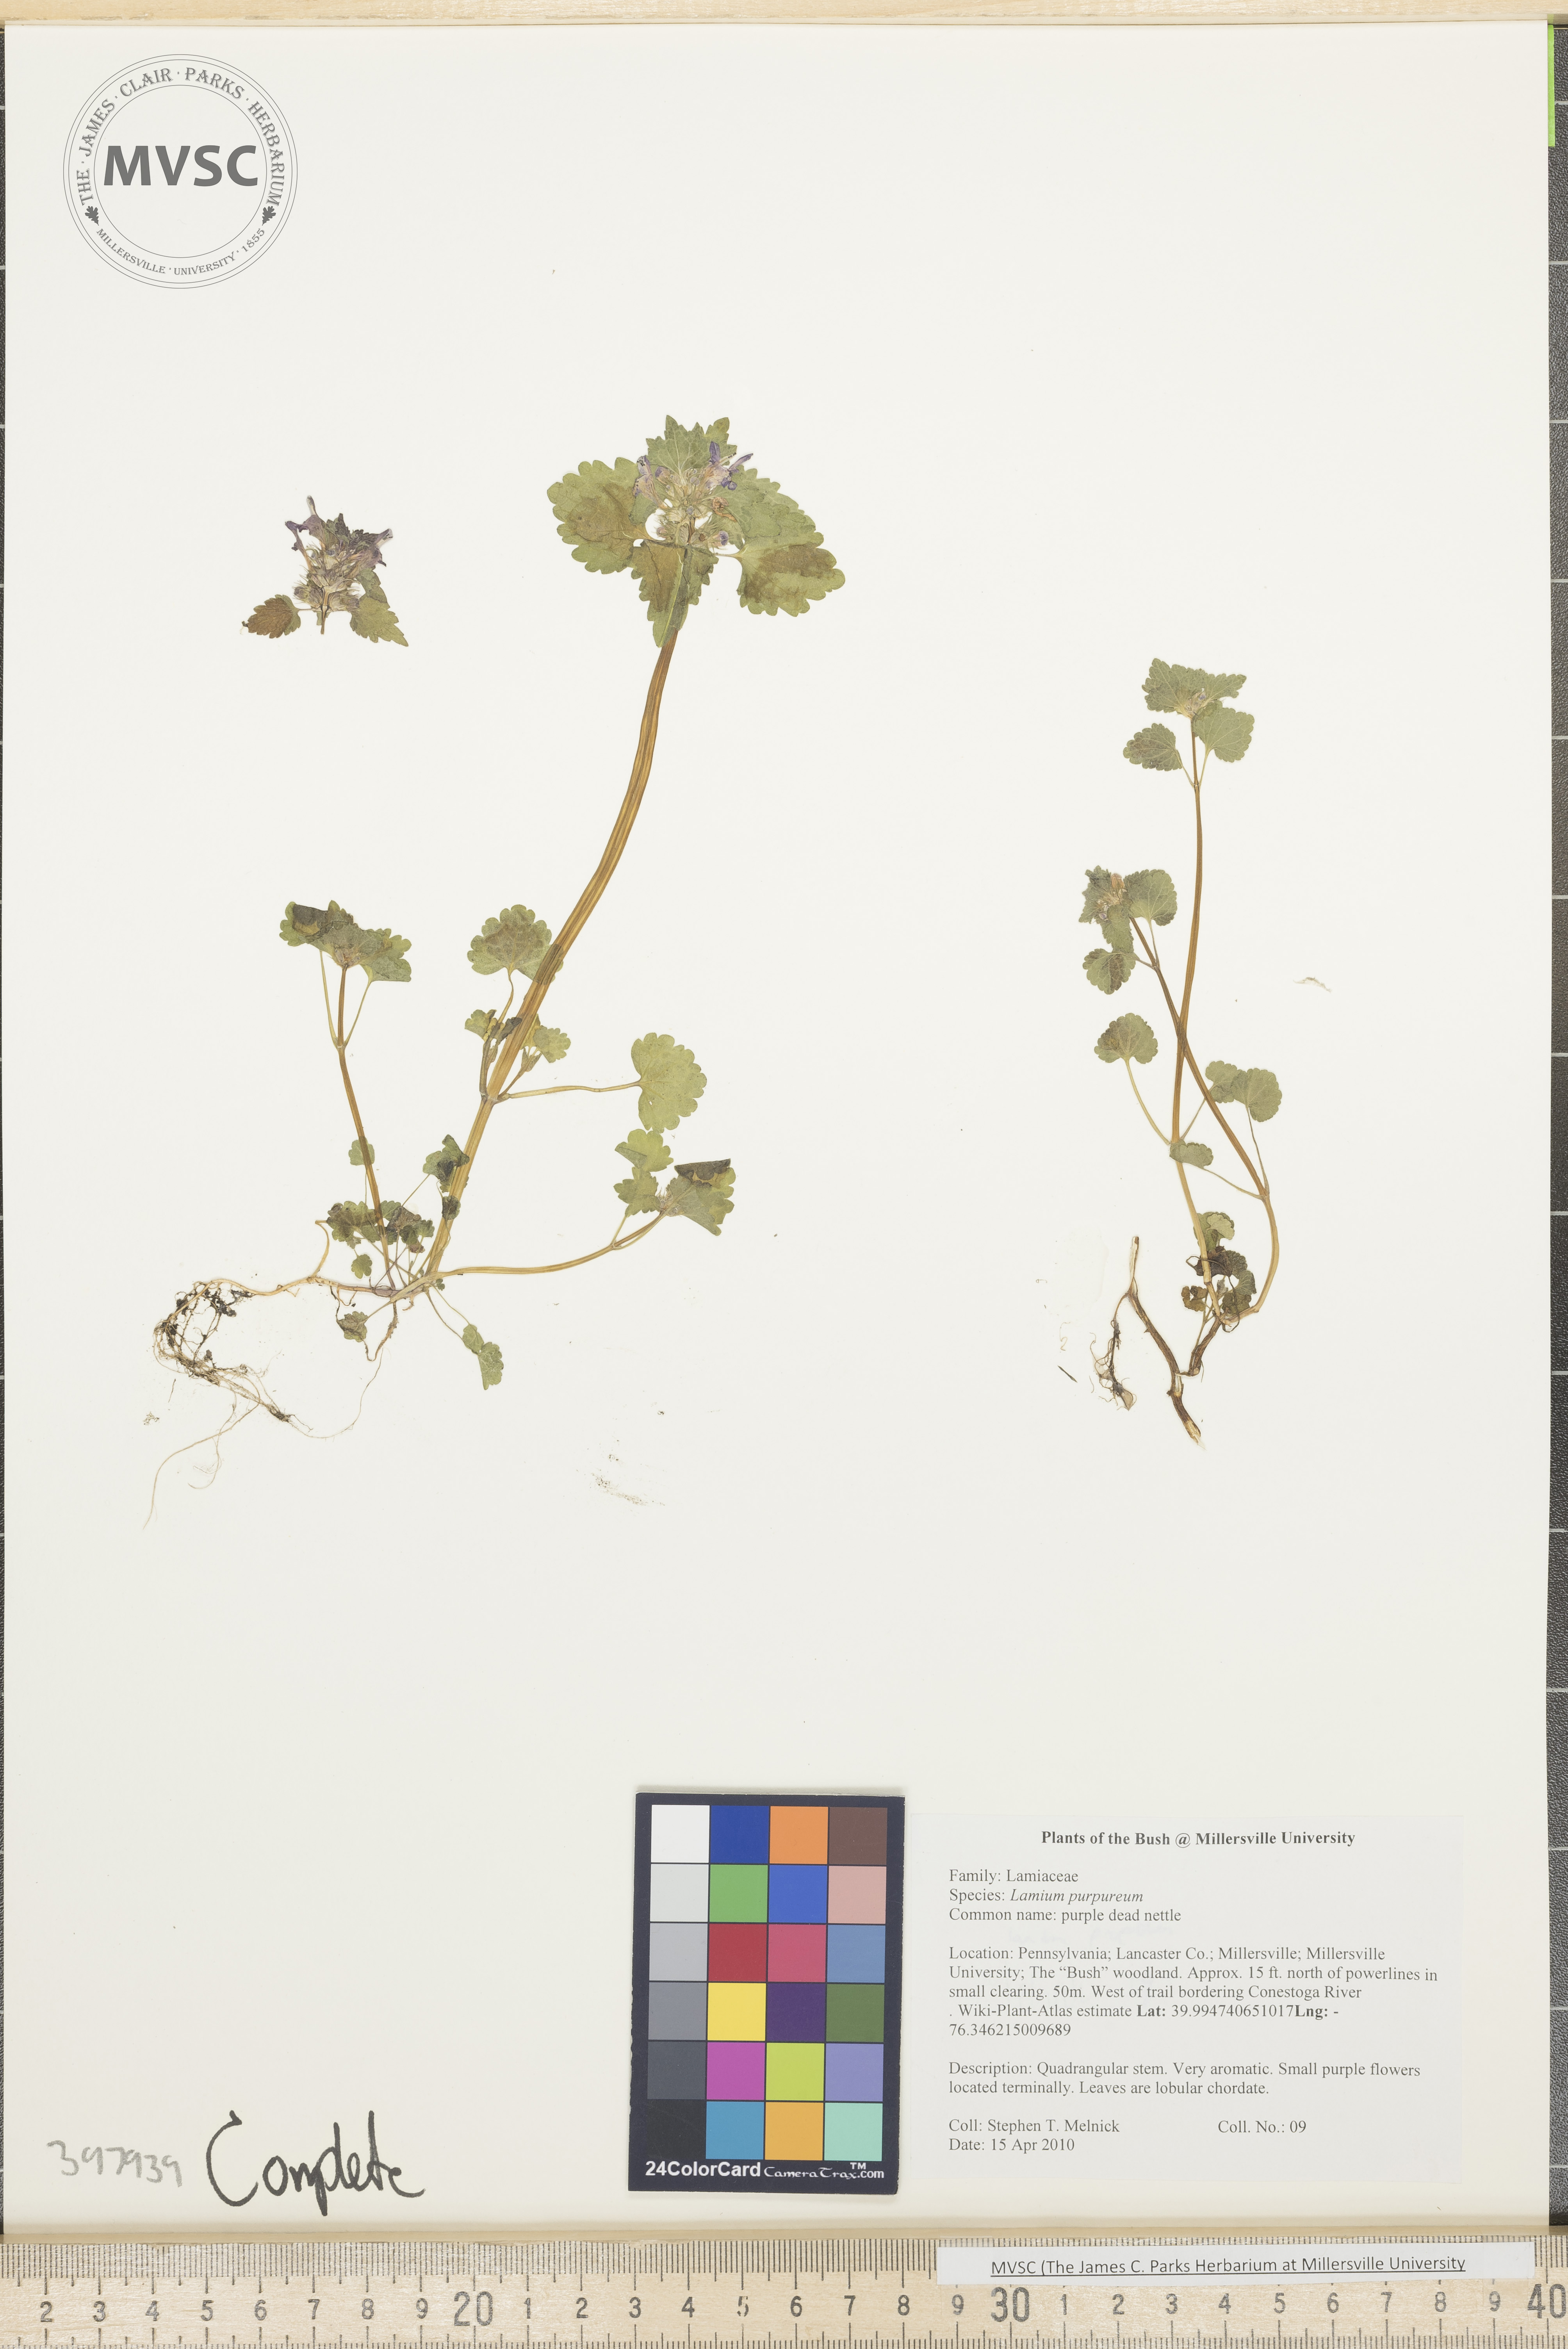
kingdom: Plantae
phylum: Tracheophyta
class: Magnoliopsida
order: Lamiales
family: Lamiaceae
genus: Lamium
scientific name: Lamium purpureum
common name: Purple dead-nettle
